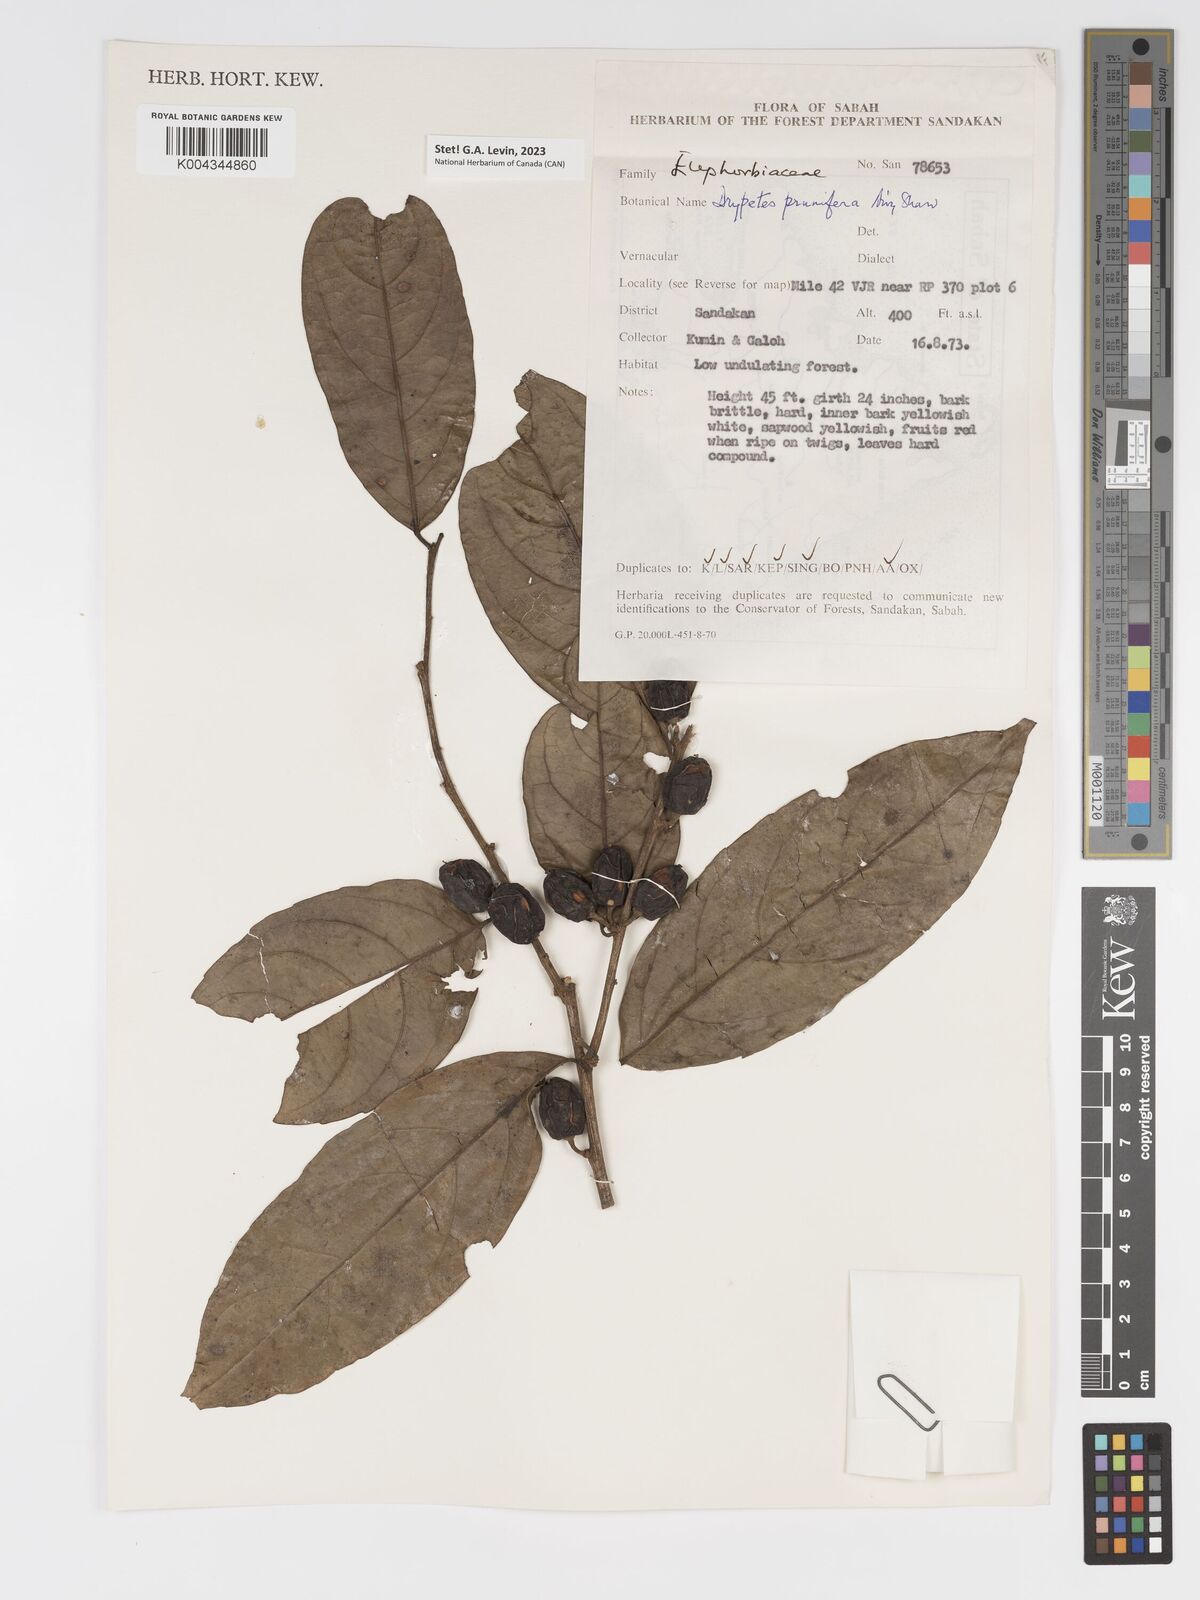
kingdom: Plantae
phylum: Tracheophyta
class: Magnoliopsida
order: Malpighiales
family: Putranjivaceae
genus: Drypetes
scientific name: Drypetes prunifera
